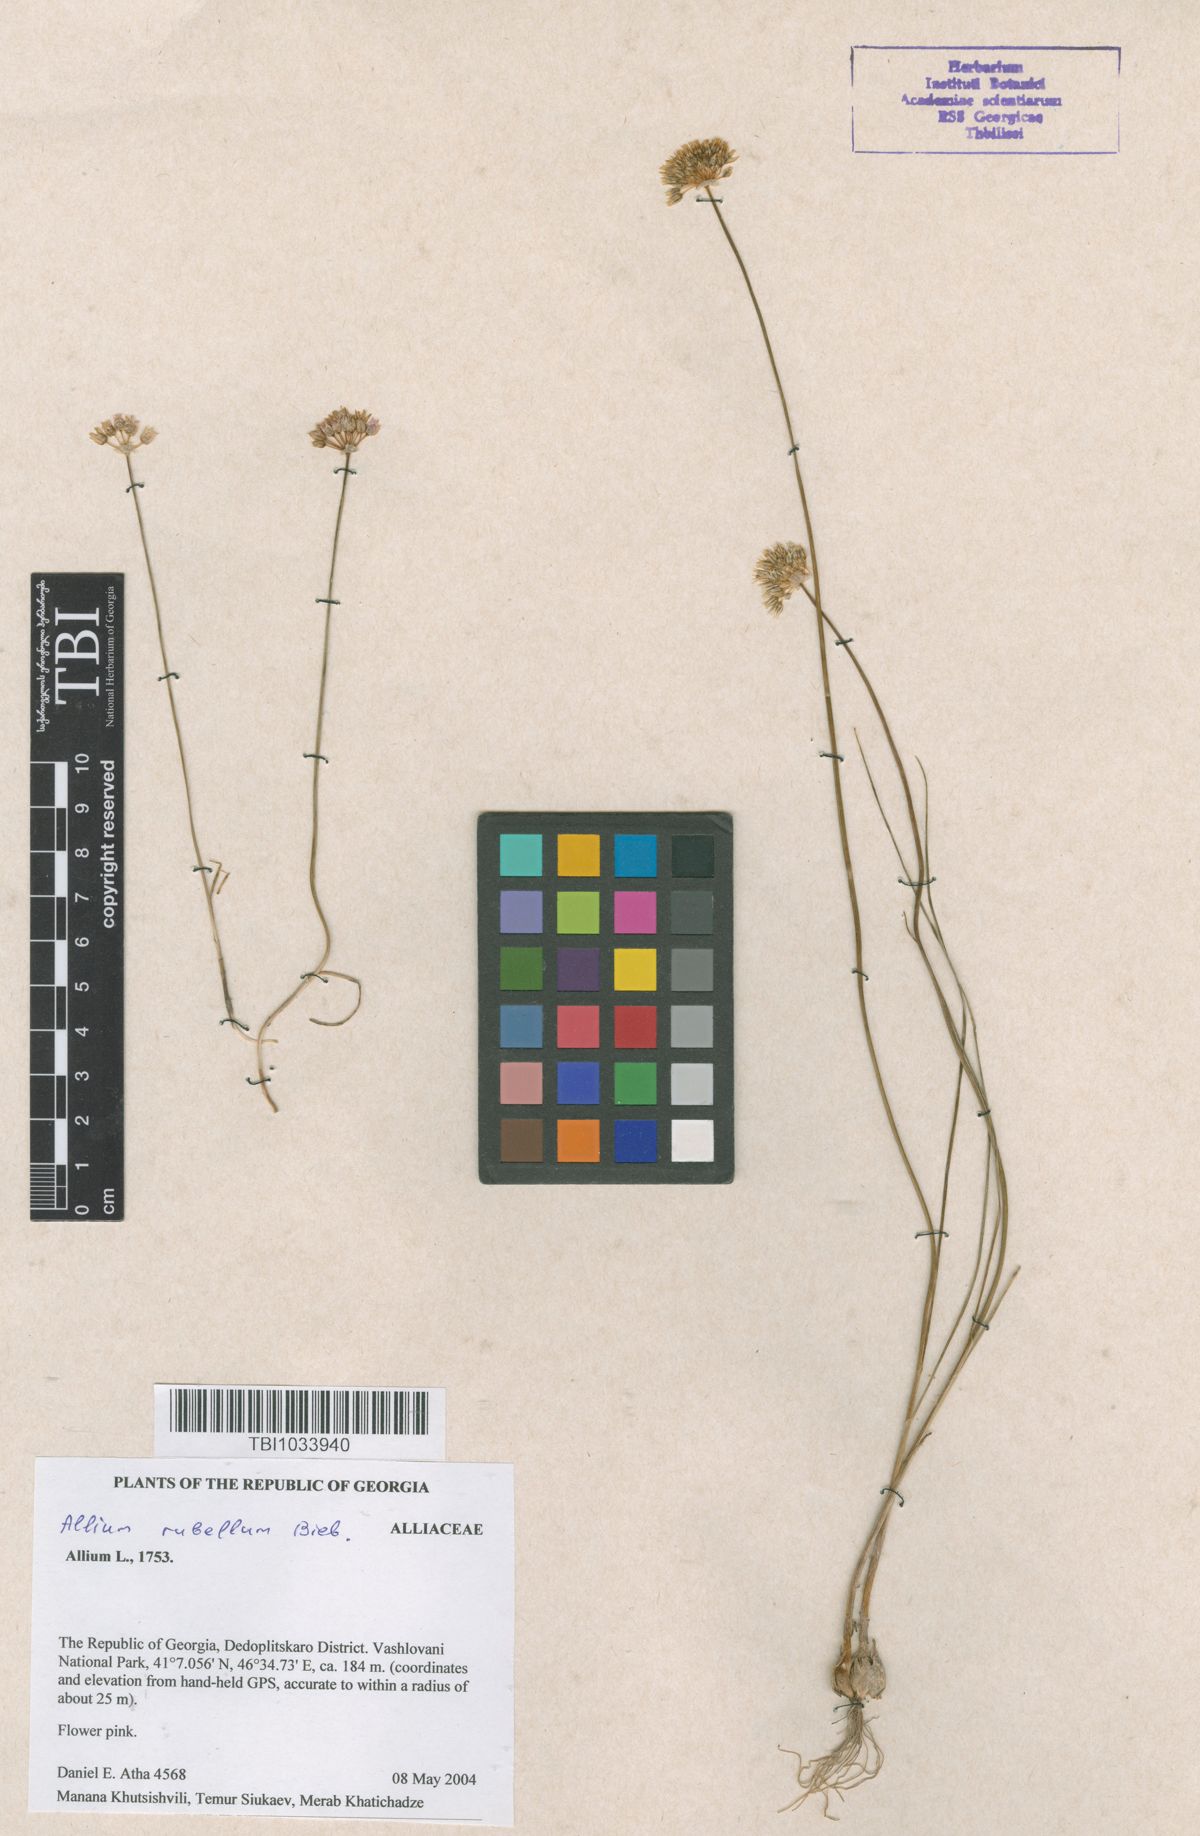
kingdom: Plantae
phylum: Tracheophyta
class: Liliopsida
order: Asparagales
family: Amaryllidaceae
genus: Allium
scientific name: Allium rubellum
